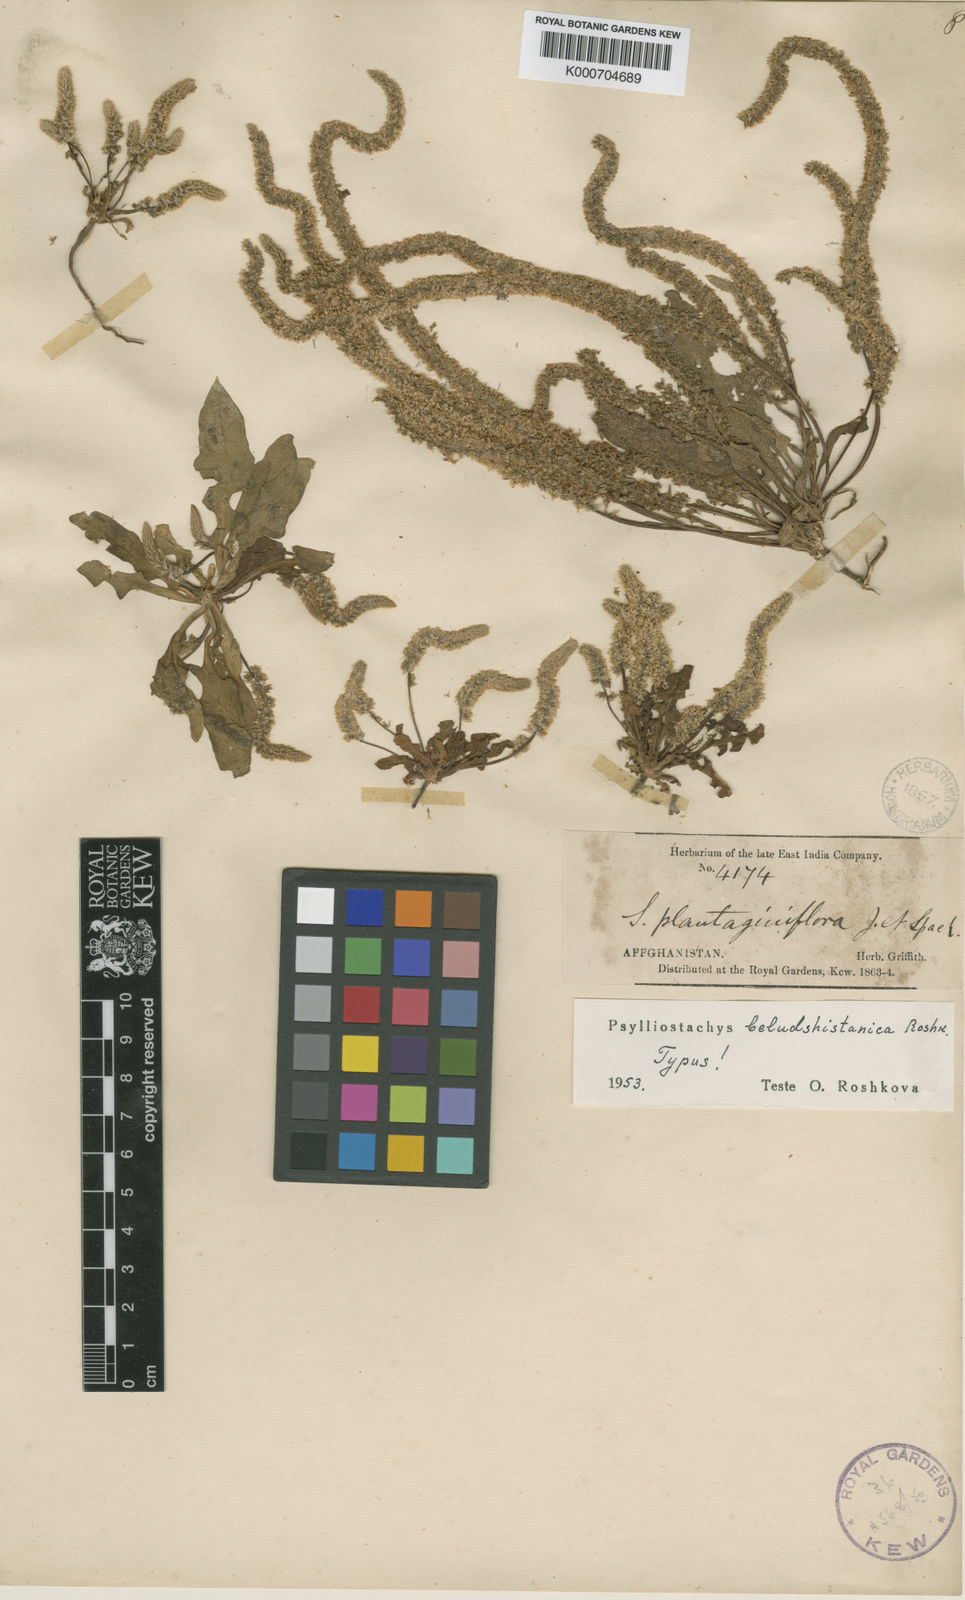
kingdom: Plantae
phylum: Tracheophyta
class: Magnoliopsida
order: Caryophyllales
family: Plumbaginaceae
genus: Psylliostachys
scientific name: Psylliostachys
